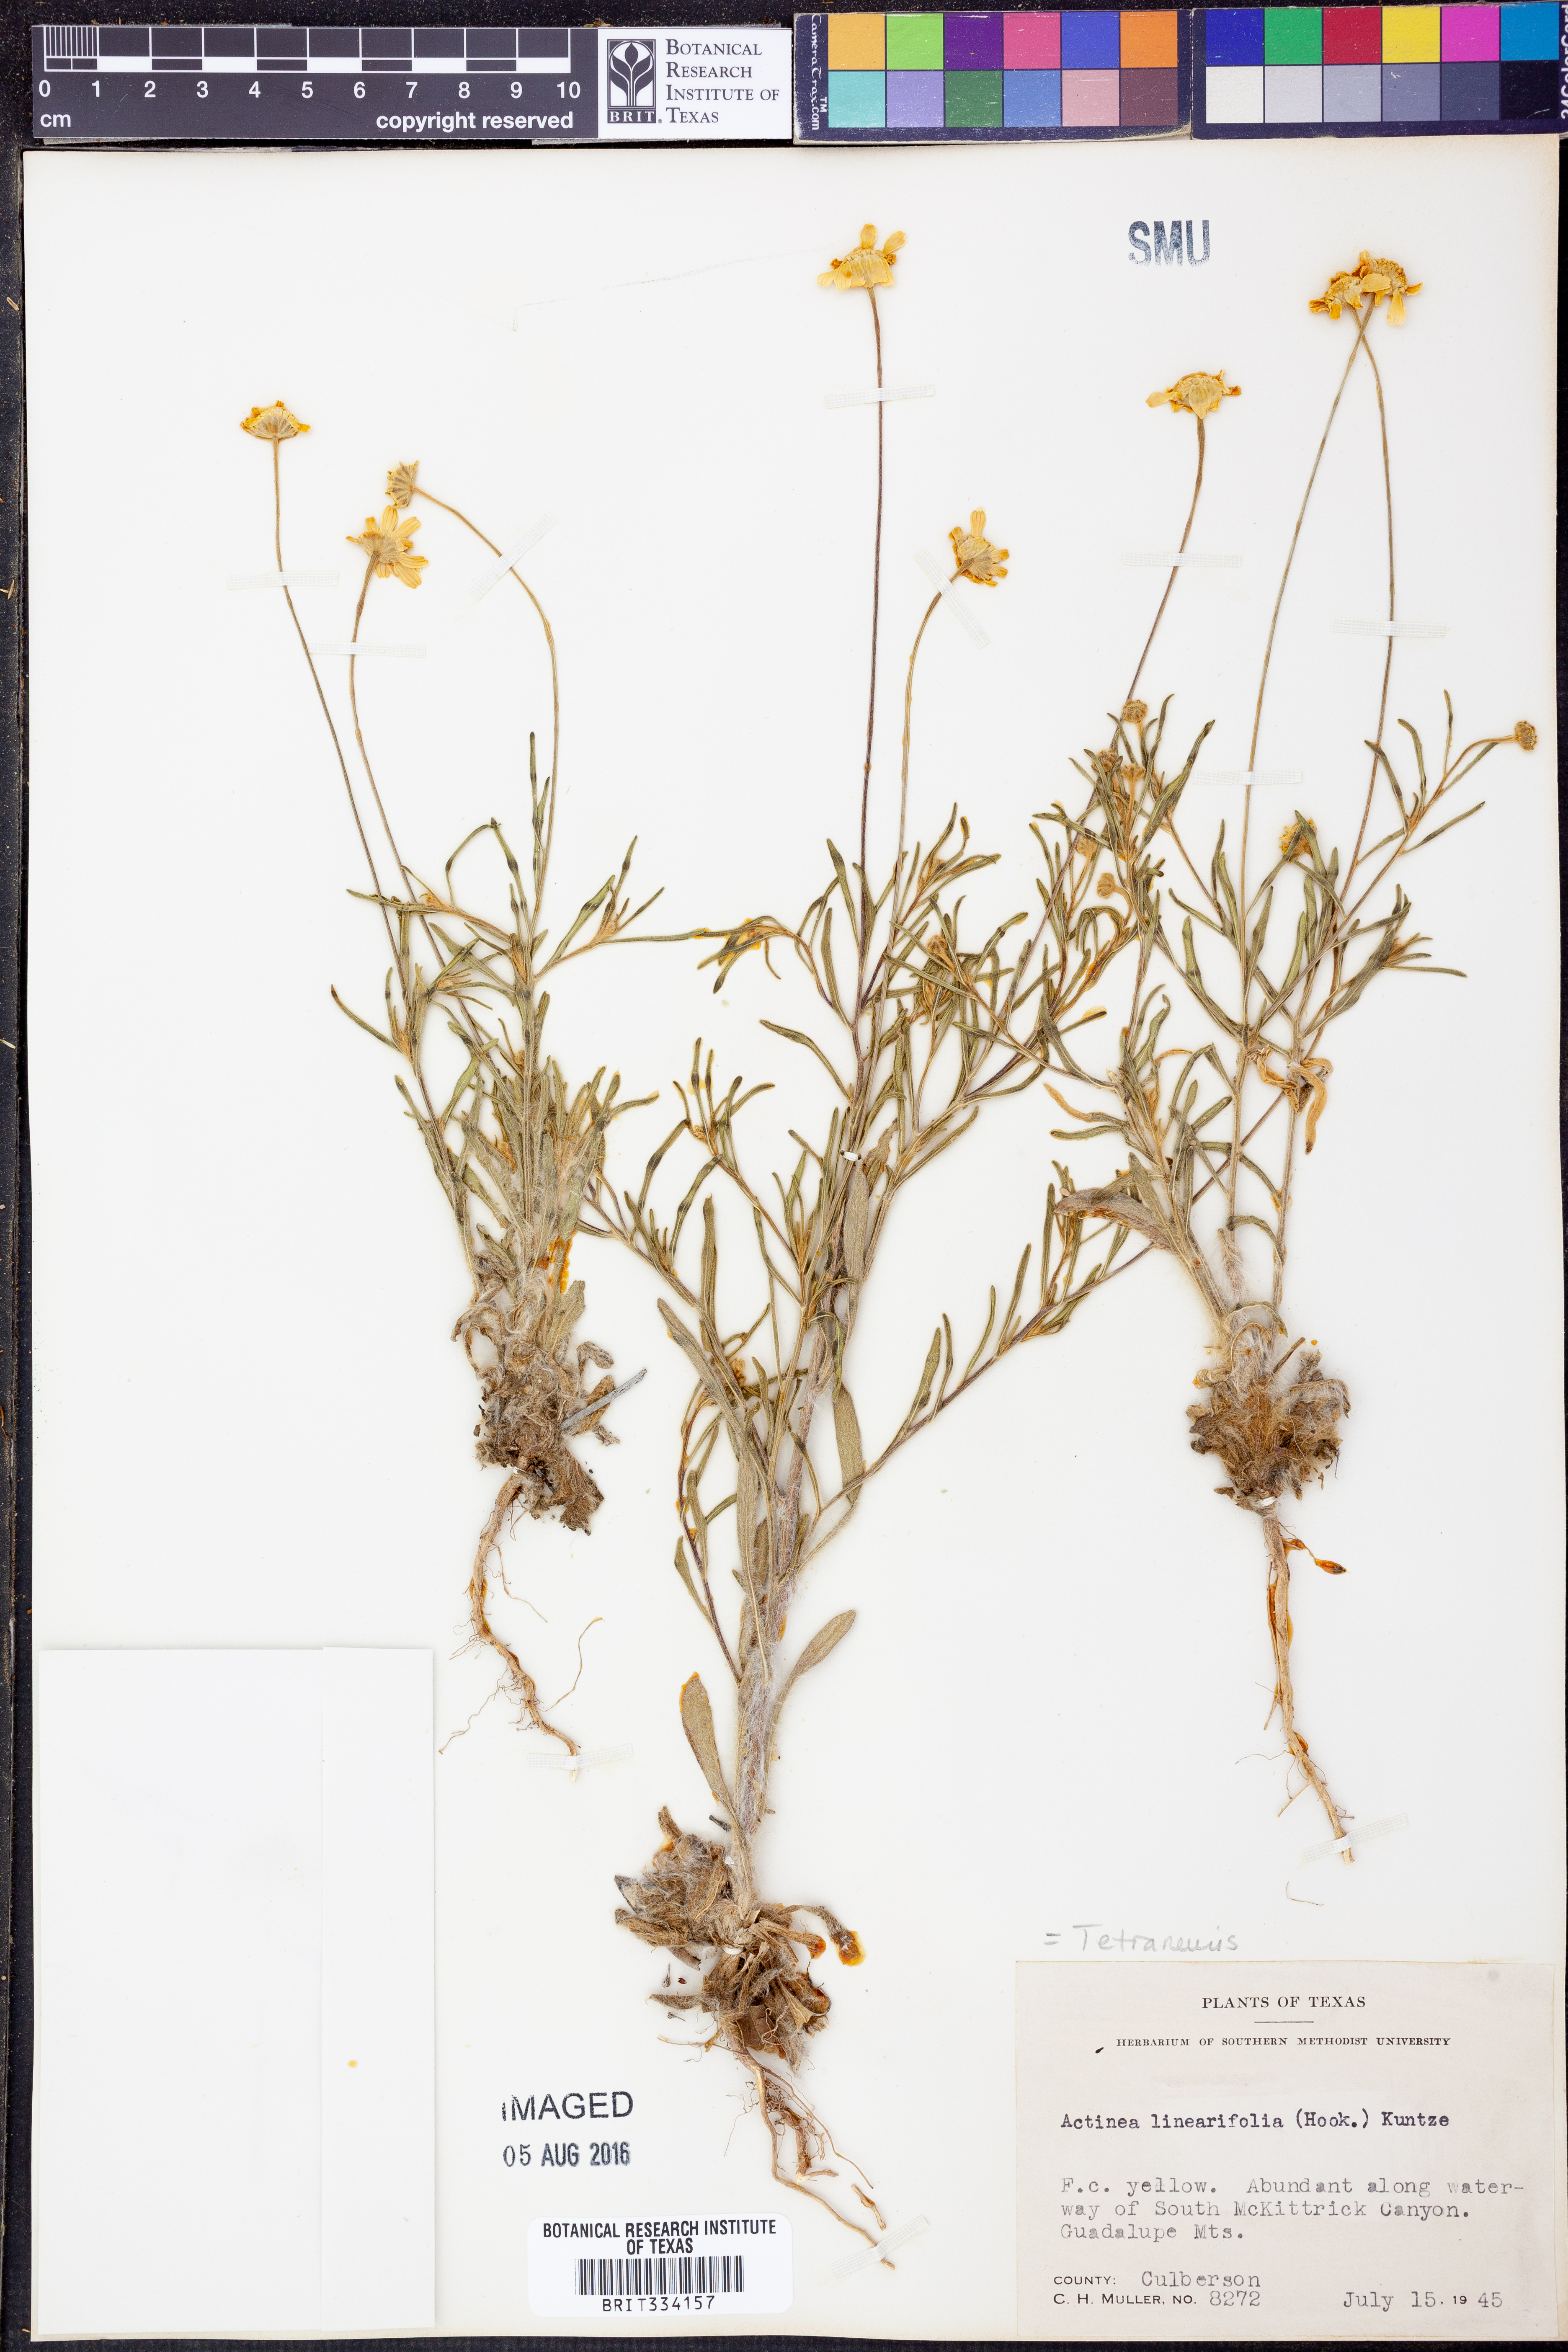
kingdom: Plantae
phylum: Tracheophyta
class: Magnoliopsida
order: Asterales
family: Asteraceae
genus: Tetraneuris
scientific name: Tetraneuris linearifolia
